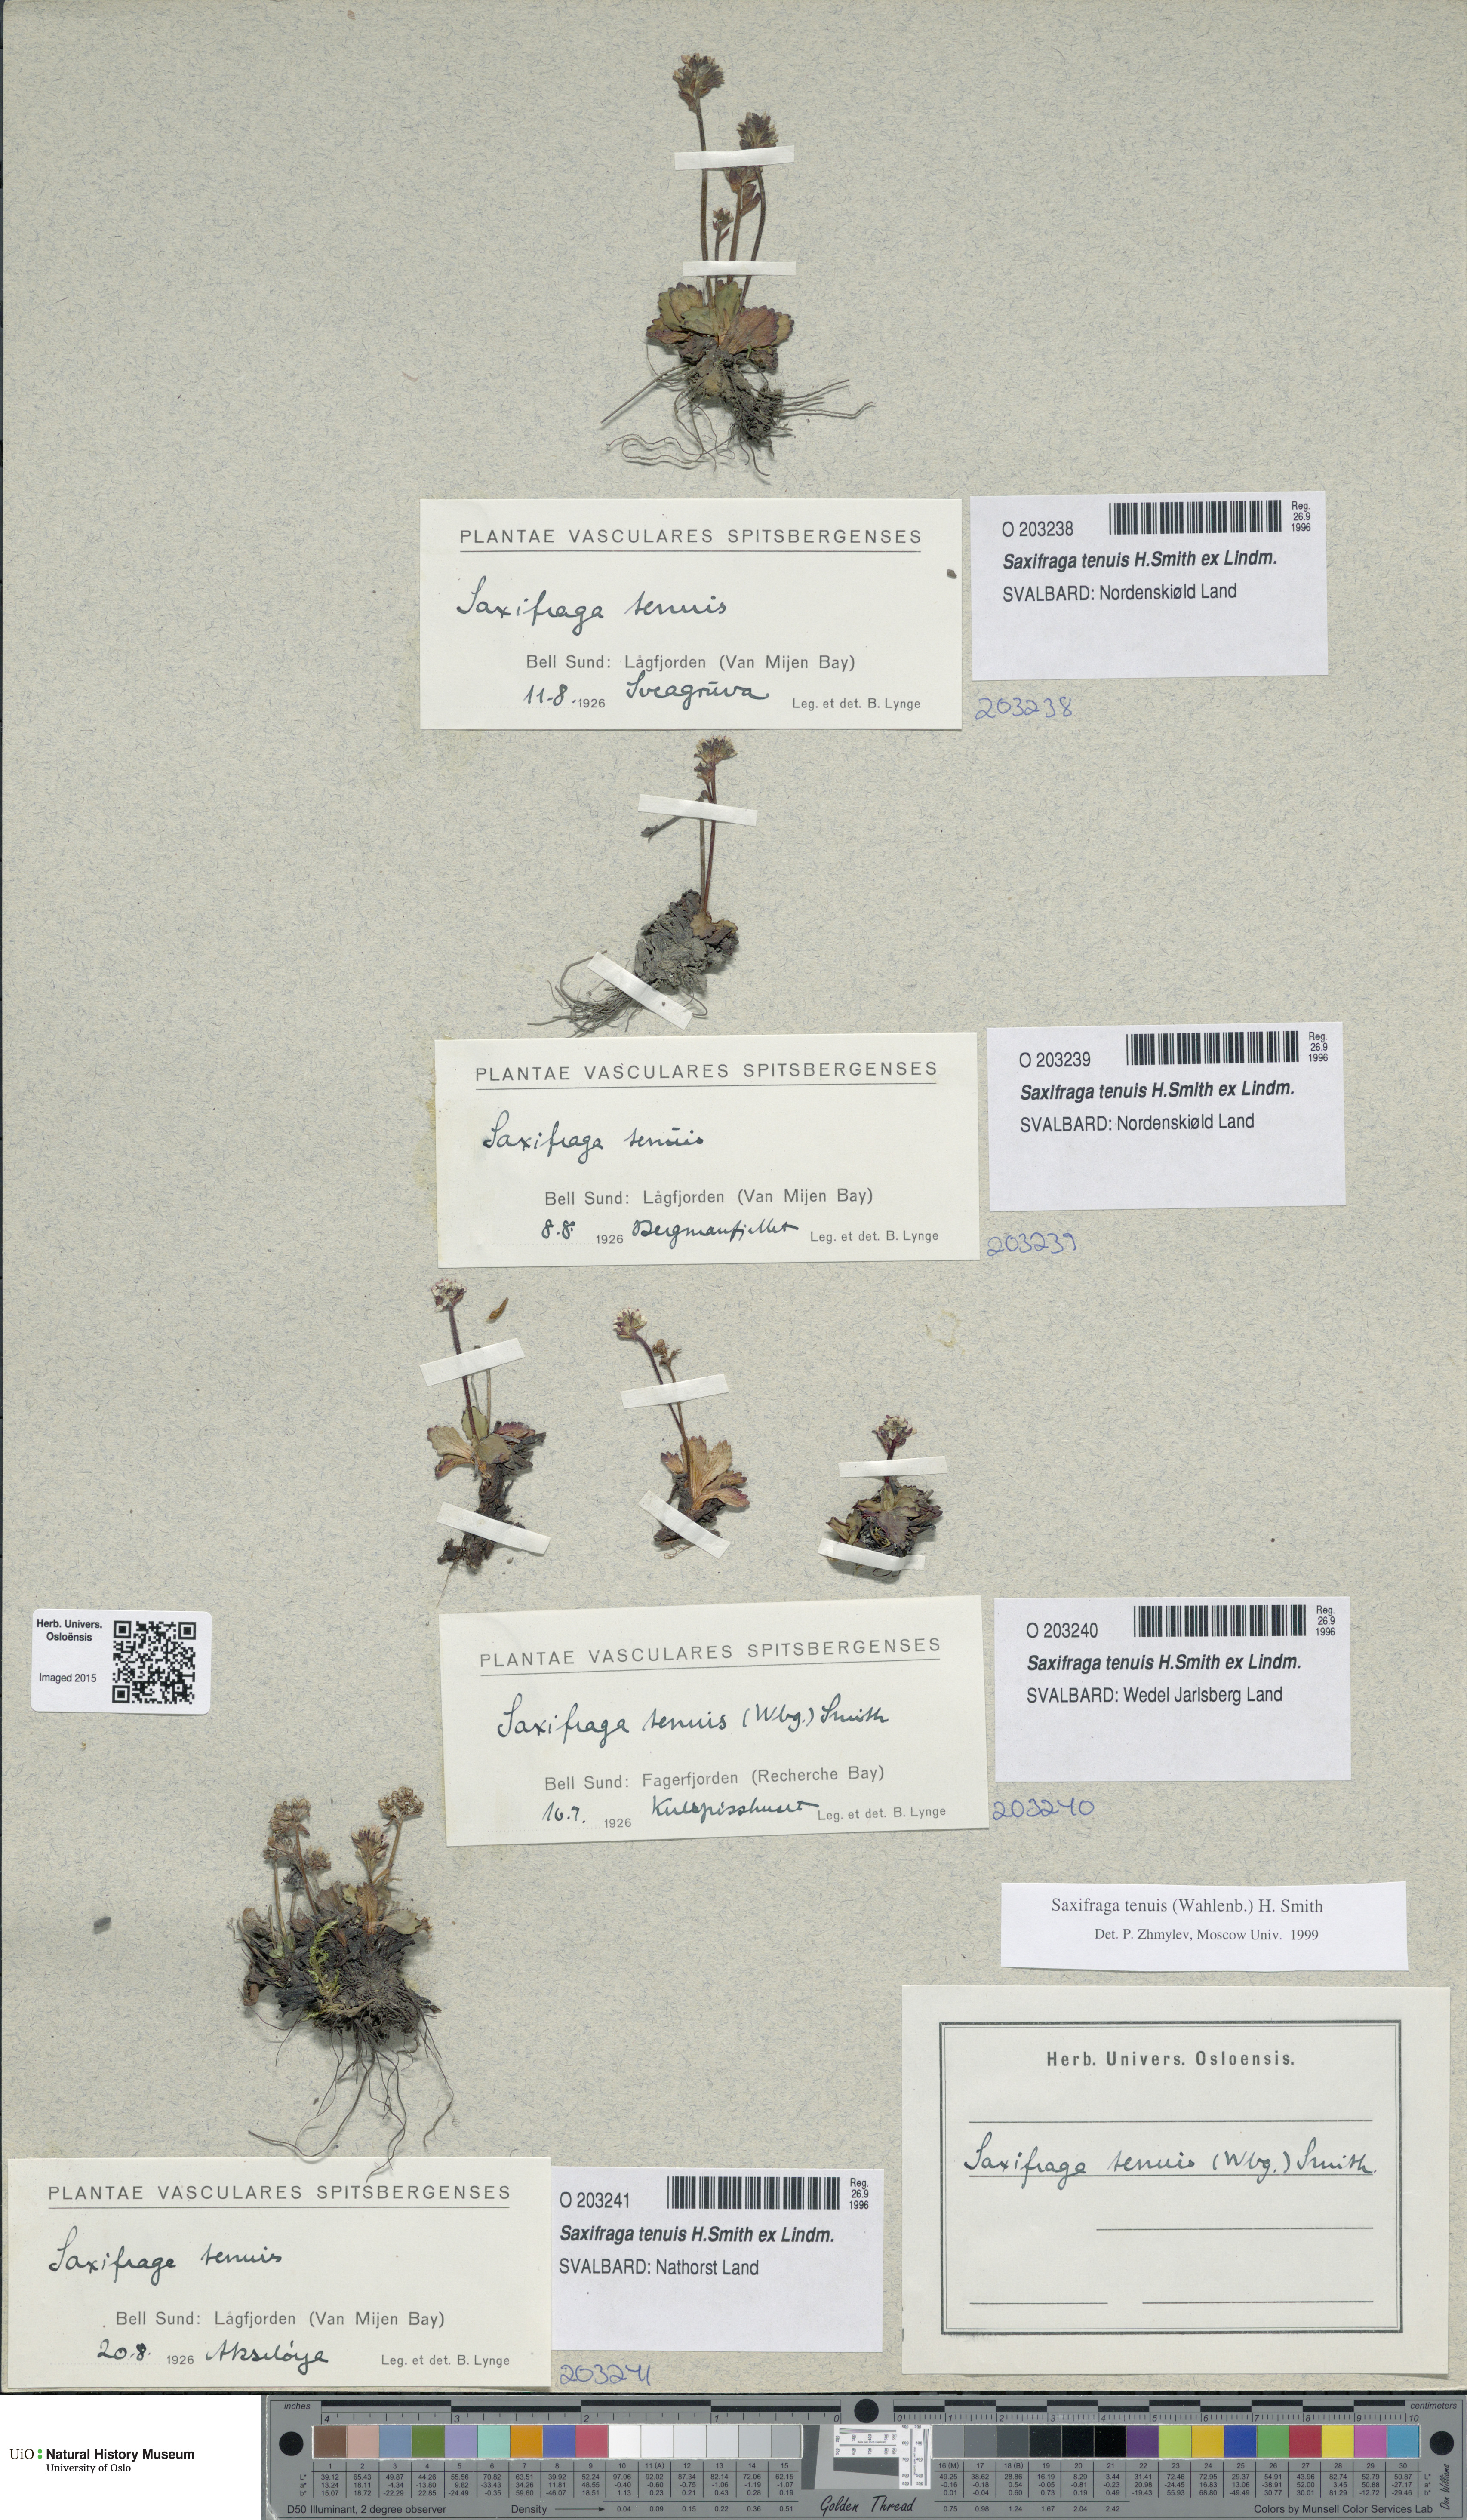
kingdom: Plantae
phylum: Tracheophyta
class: Magnoliopsida
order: Saxifragales
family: Saxifragaceae
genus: Micranthes
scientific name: Micranthes tenuis
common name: Ottertail pass saxifrage
